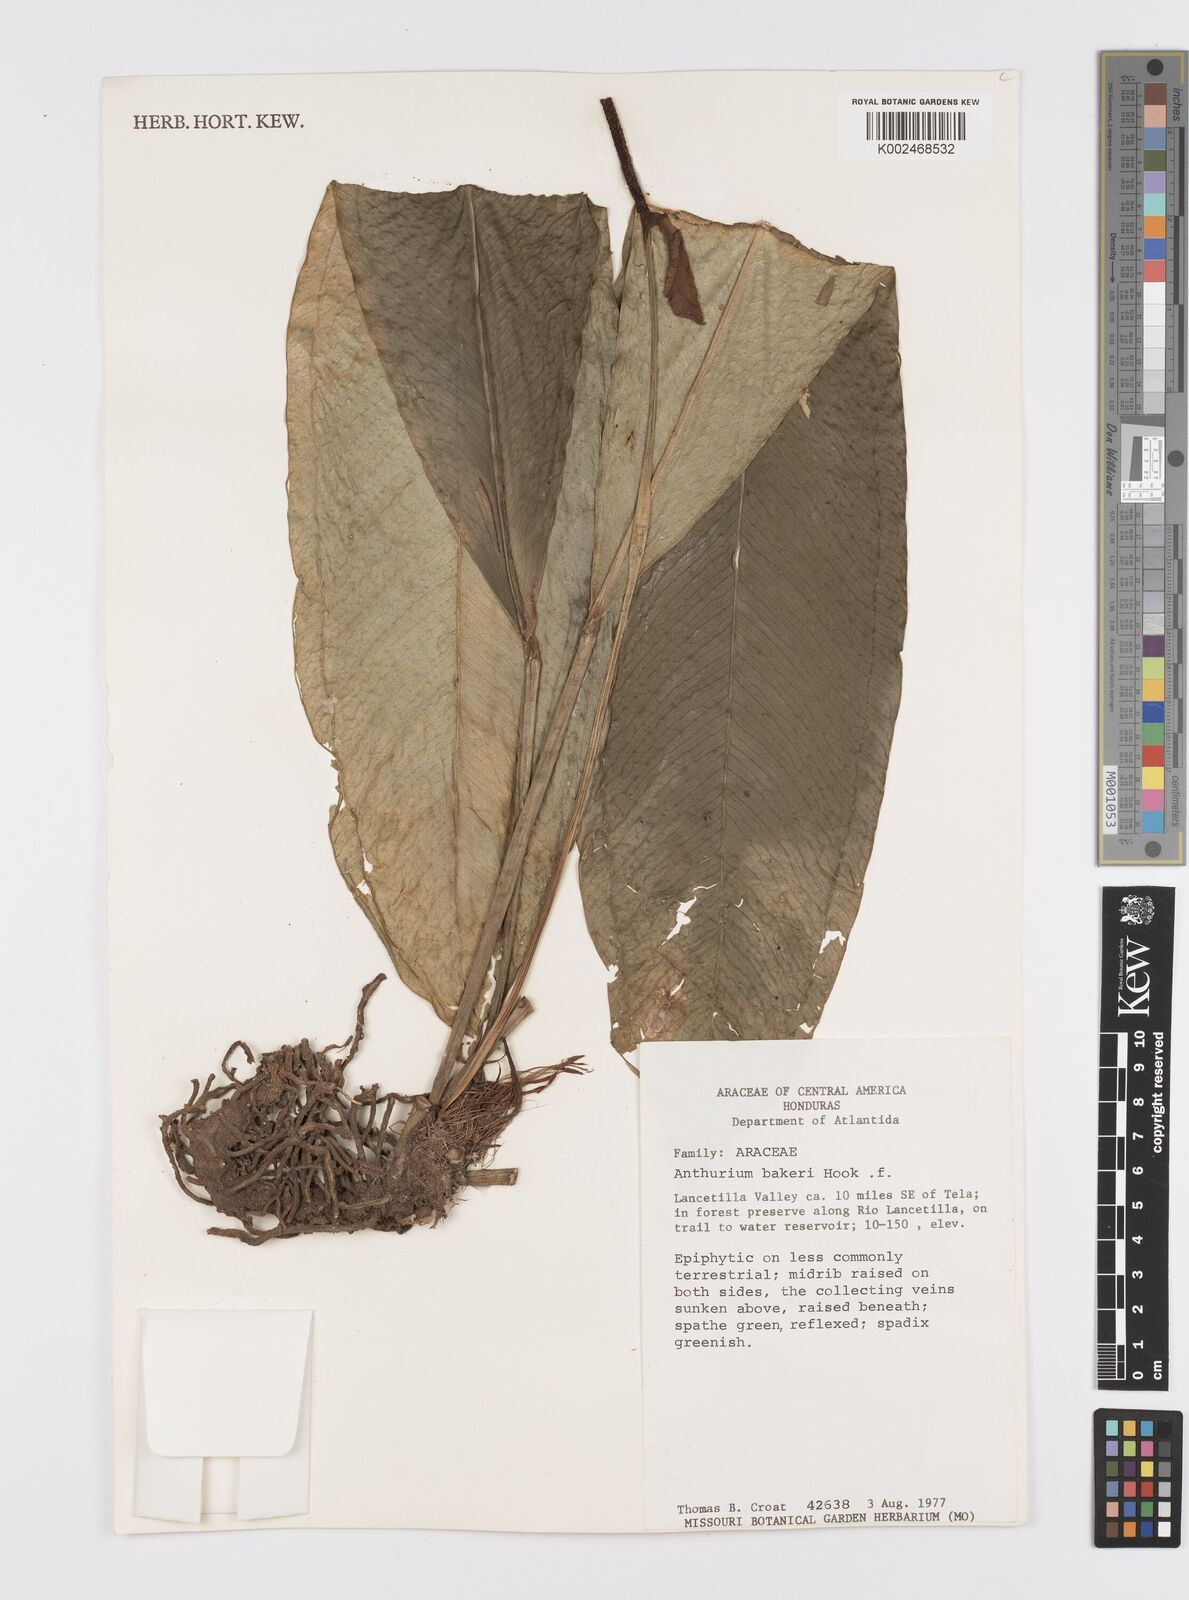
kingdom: Plantae
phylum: Tracheophyta
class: Liliopsida
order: Alismatales
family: Araceae
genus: Anthurium
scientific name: Anthurium bakeri
